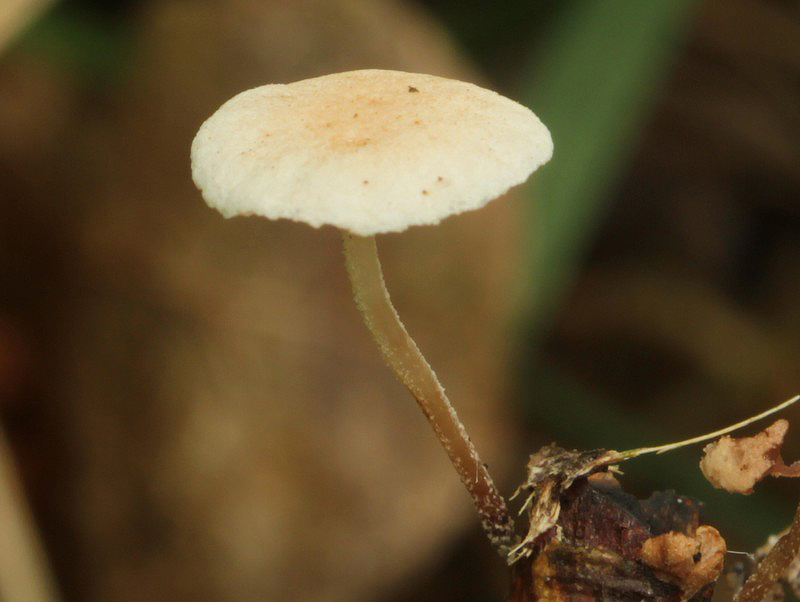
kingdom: Fungi
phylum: Basidiomycota
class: Agaricomycetes
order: Agaricales
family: Omphalotaceae
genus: Collybiopsis
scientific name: Collybiopsis ramealis
